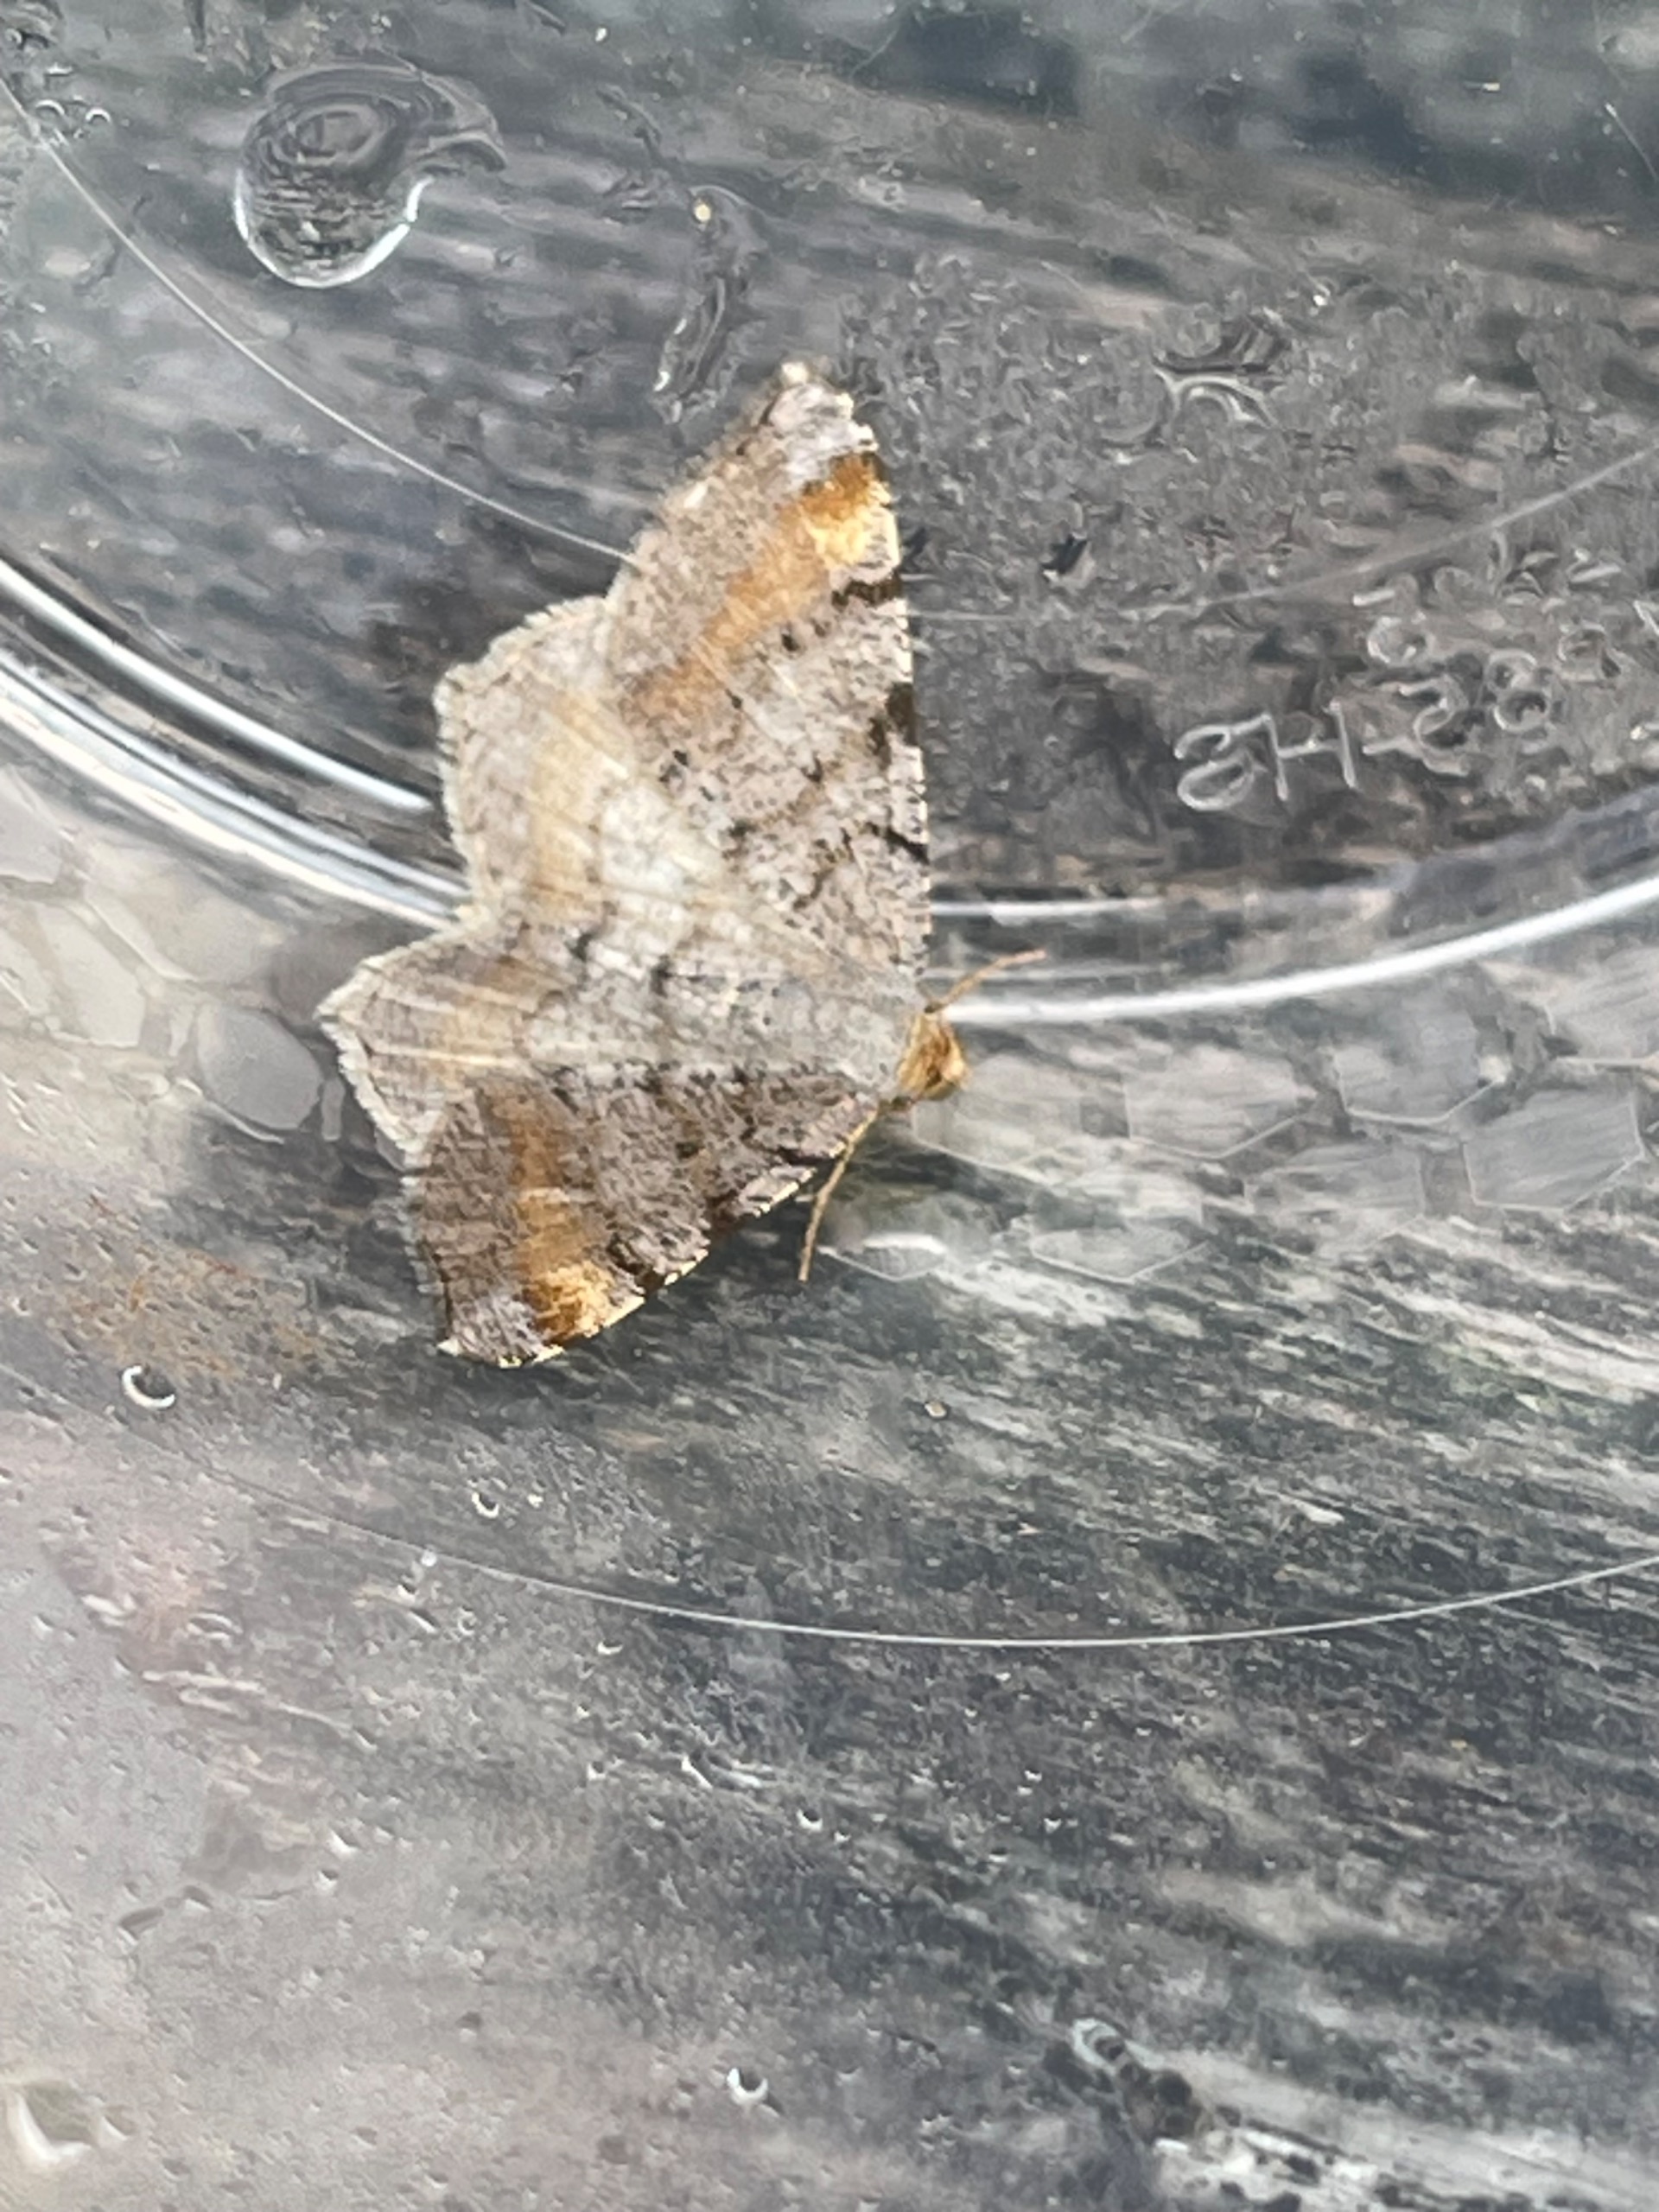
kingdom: Animalia
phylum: Arthropoda
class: Insecta
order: Lepidoptera
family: Geometridae
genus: Macaria
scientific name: Macaria liturata
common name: Fyrre-skovmåler
